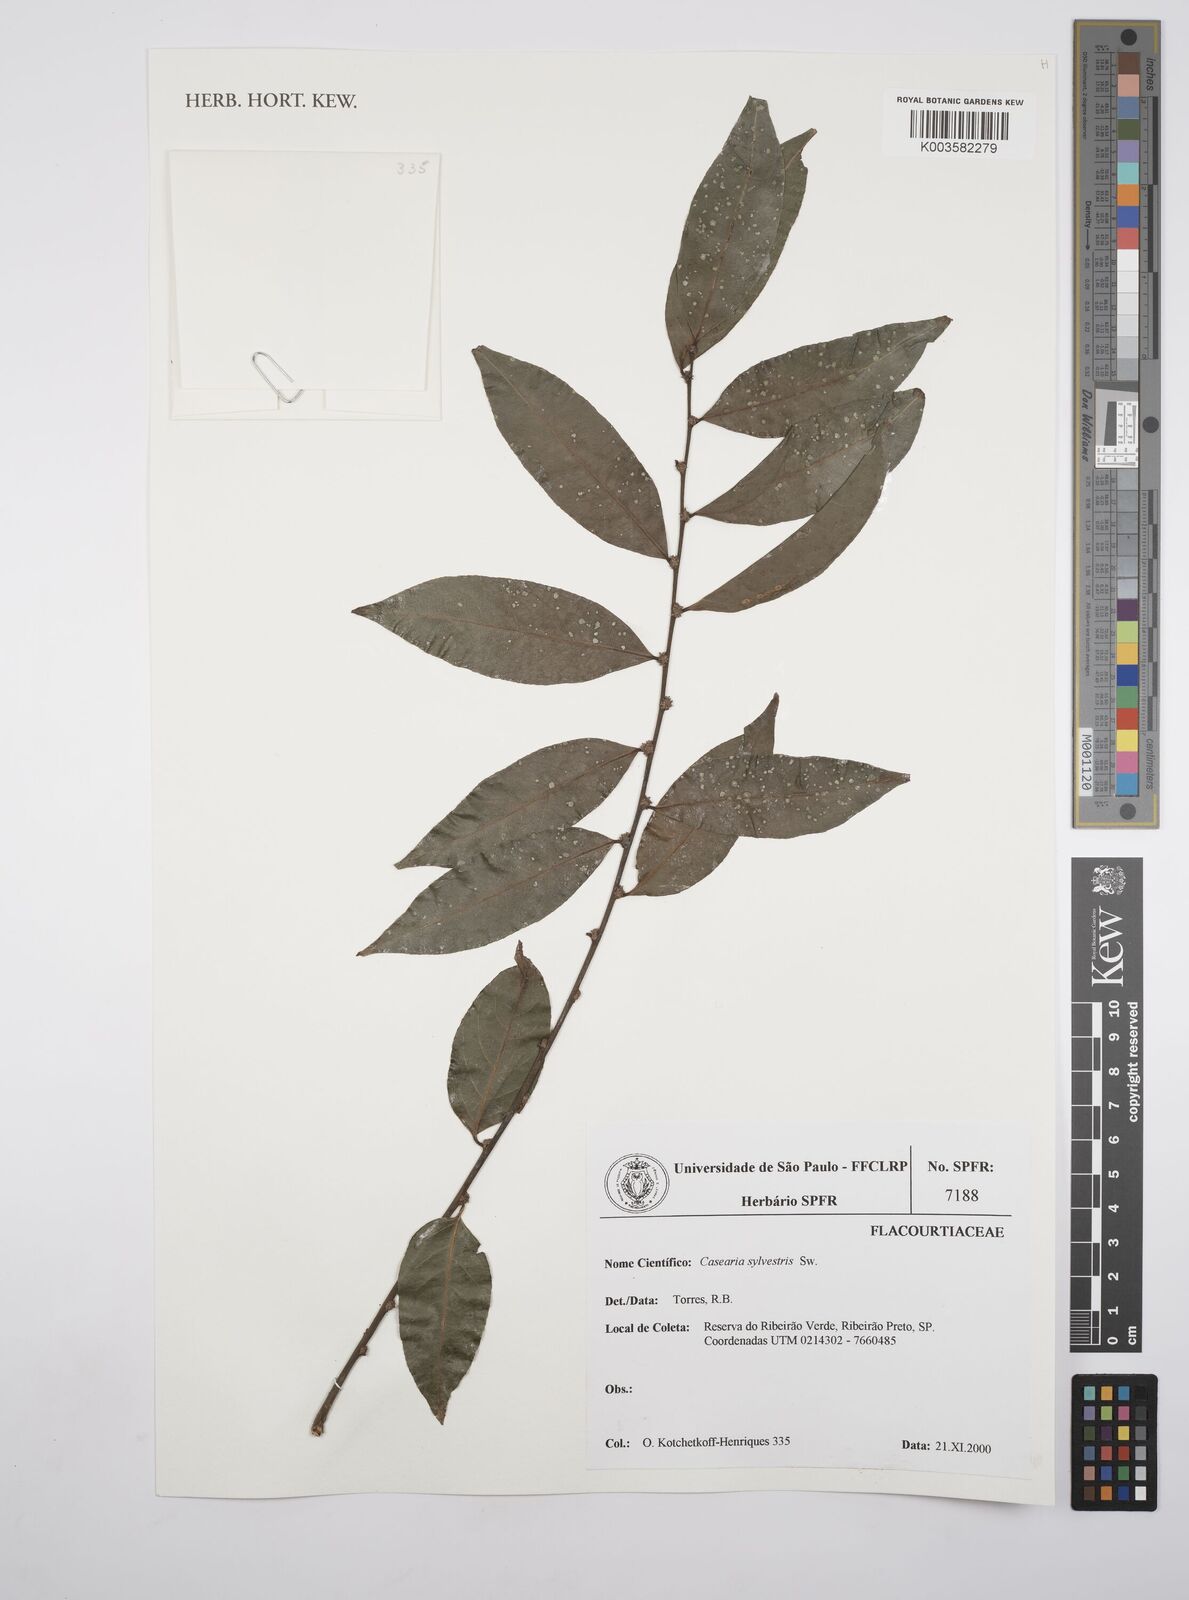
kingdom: Plantae
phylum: Tracheophyta
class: Magnoliopsida
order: Malpighiales
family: Salicaceae
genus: Casearia
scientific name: Casearia sylvestris
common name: Wild sage
